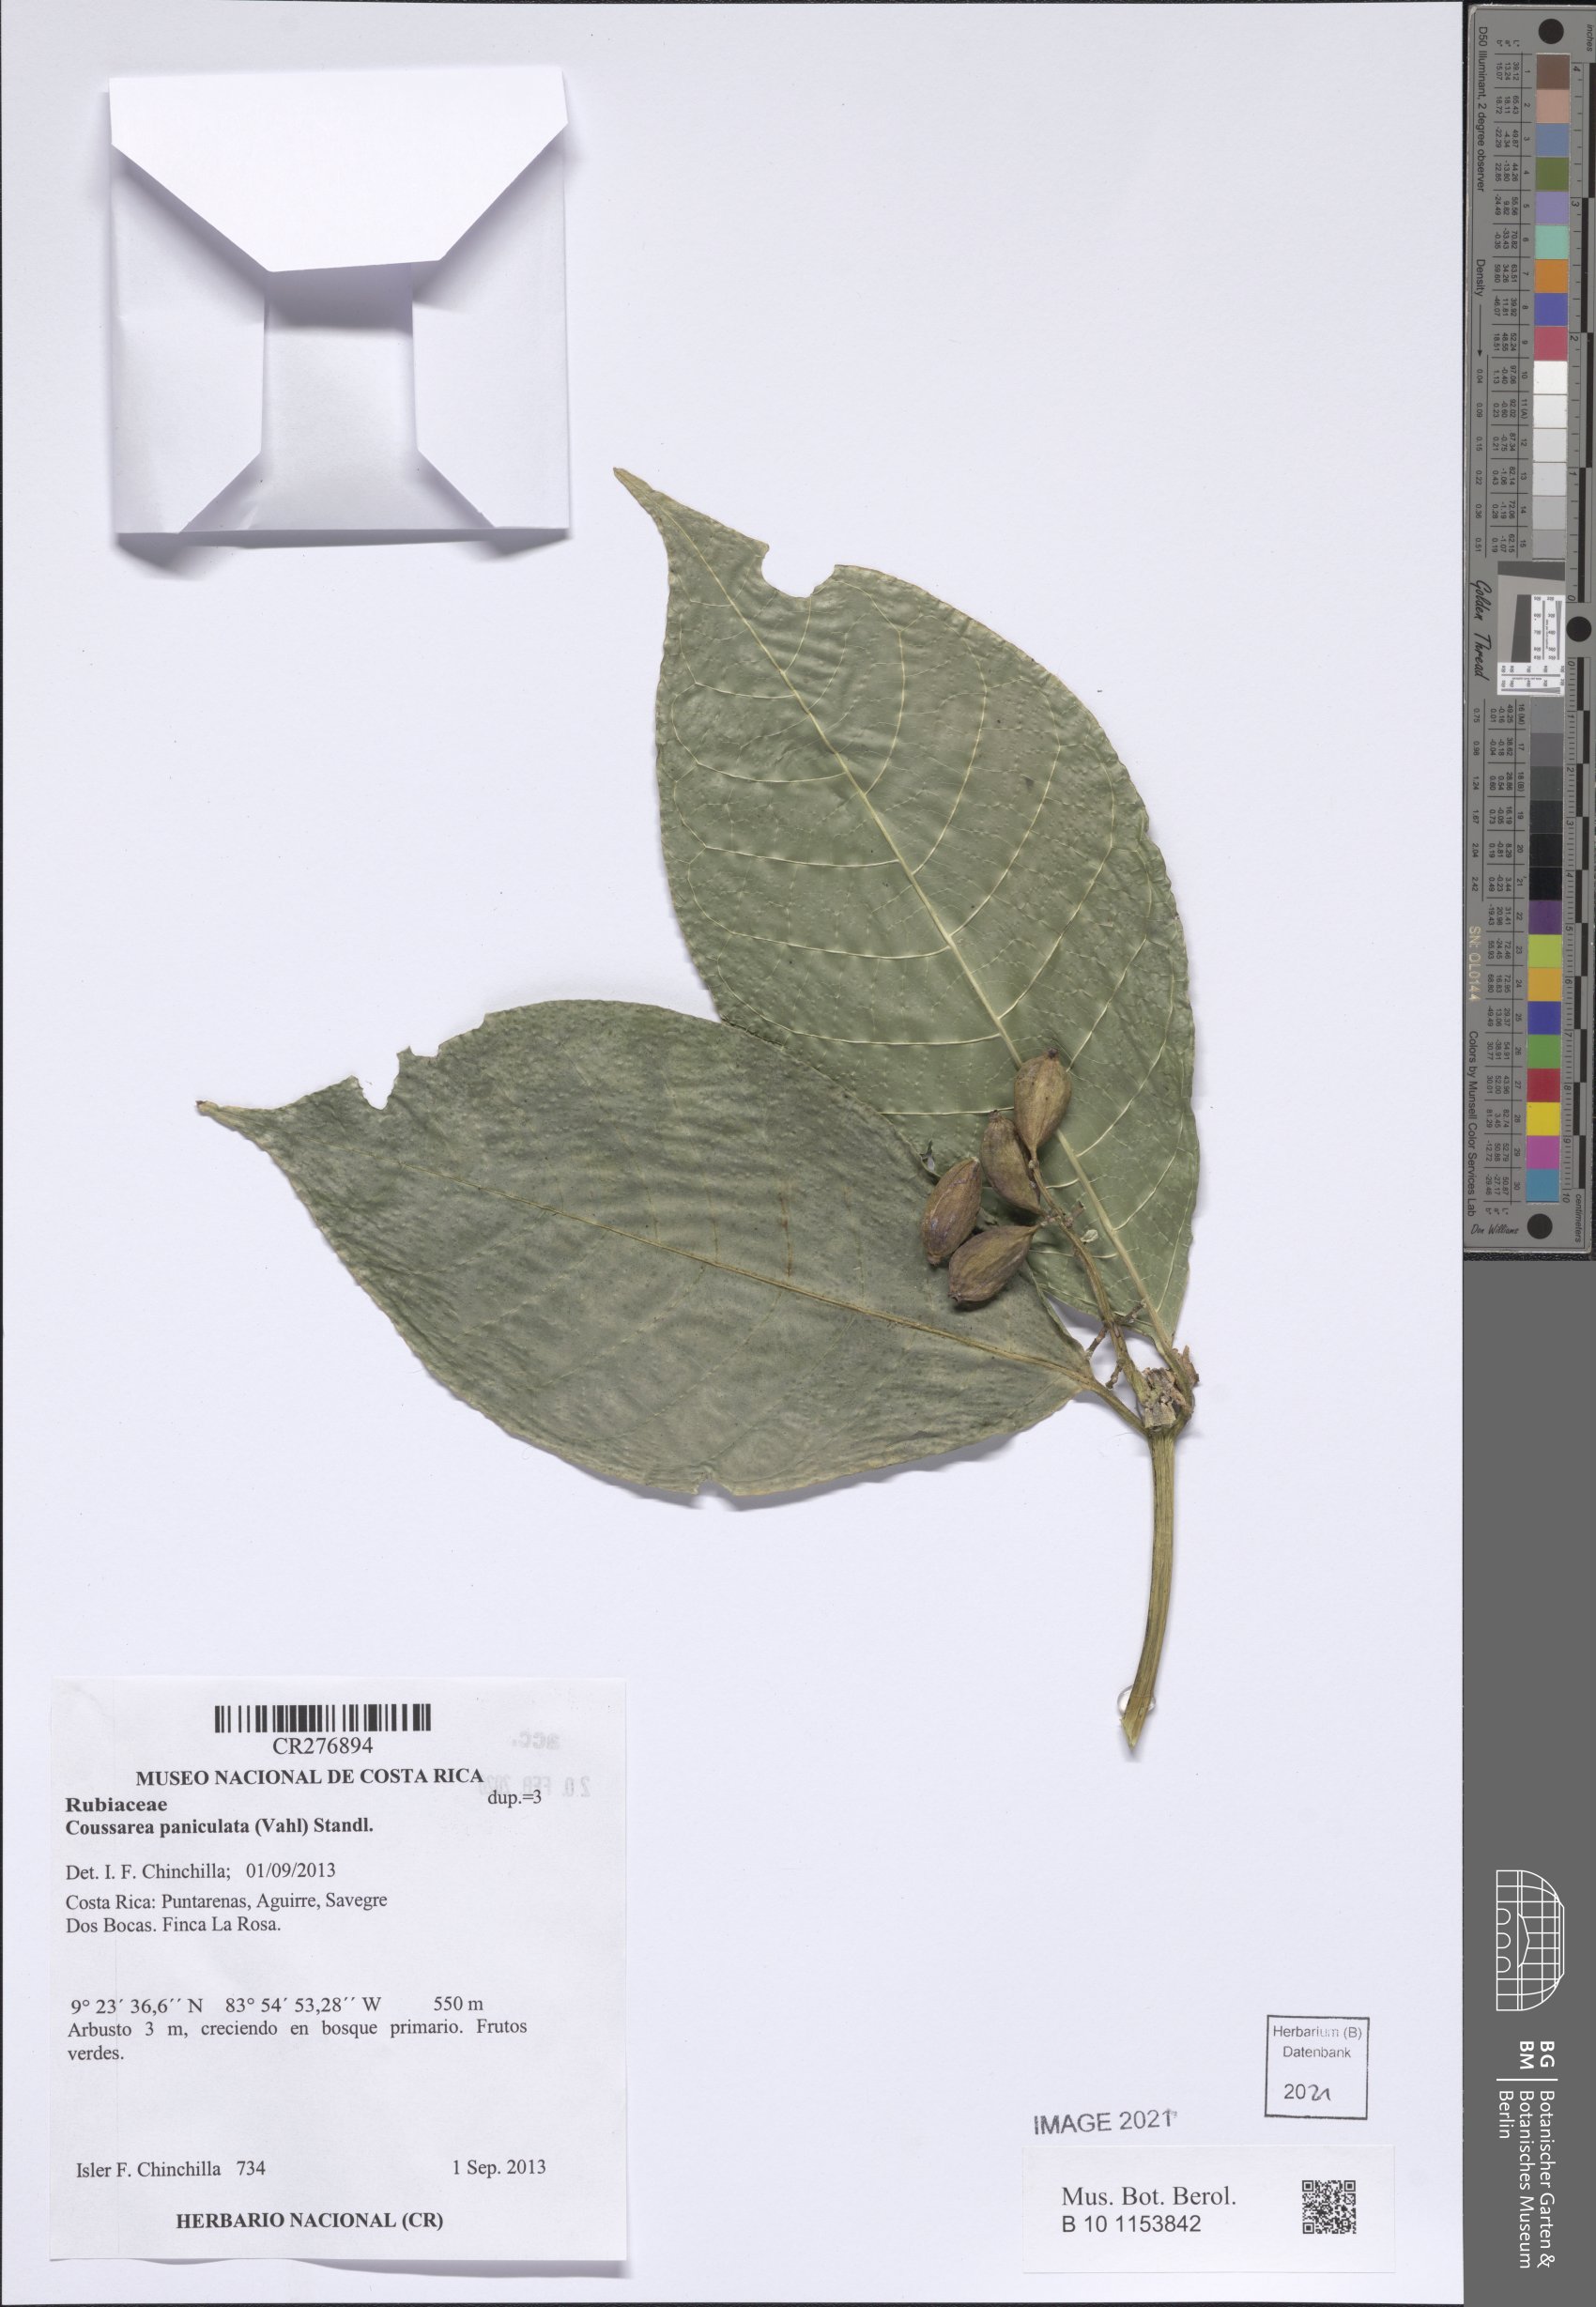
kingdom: Plantae
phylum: Tracheophyta
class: Magnoliopsida
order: Gentianales
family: Rubiaceae
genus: Coussarea
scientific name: Coussarea paniculata
